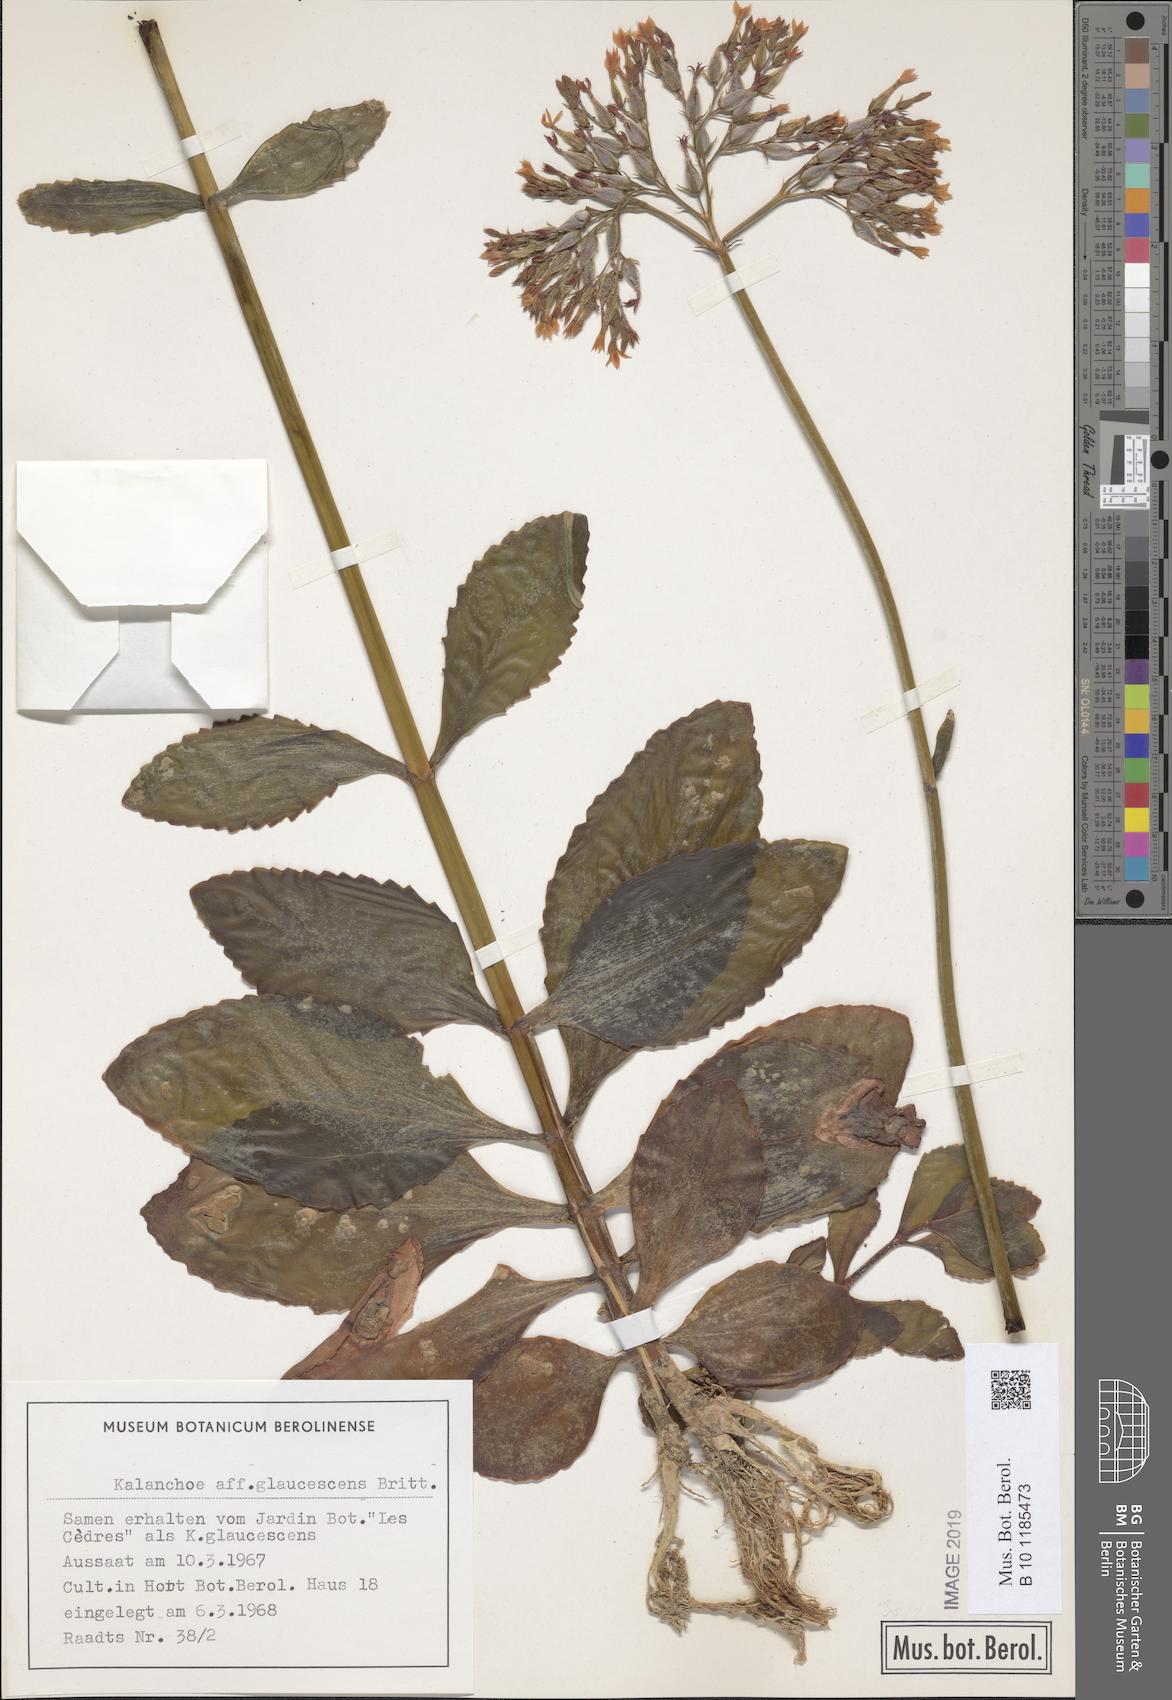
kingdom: Plantae
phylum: Tracheophyta
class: Magnoliopsida
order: Saxifragales
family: Crassulaceae
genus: Kalanchoe
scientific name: Kalanchoe glaucescens
